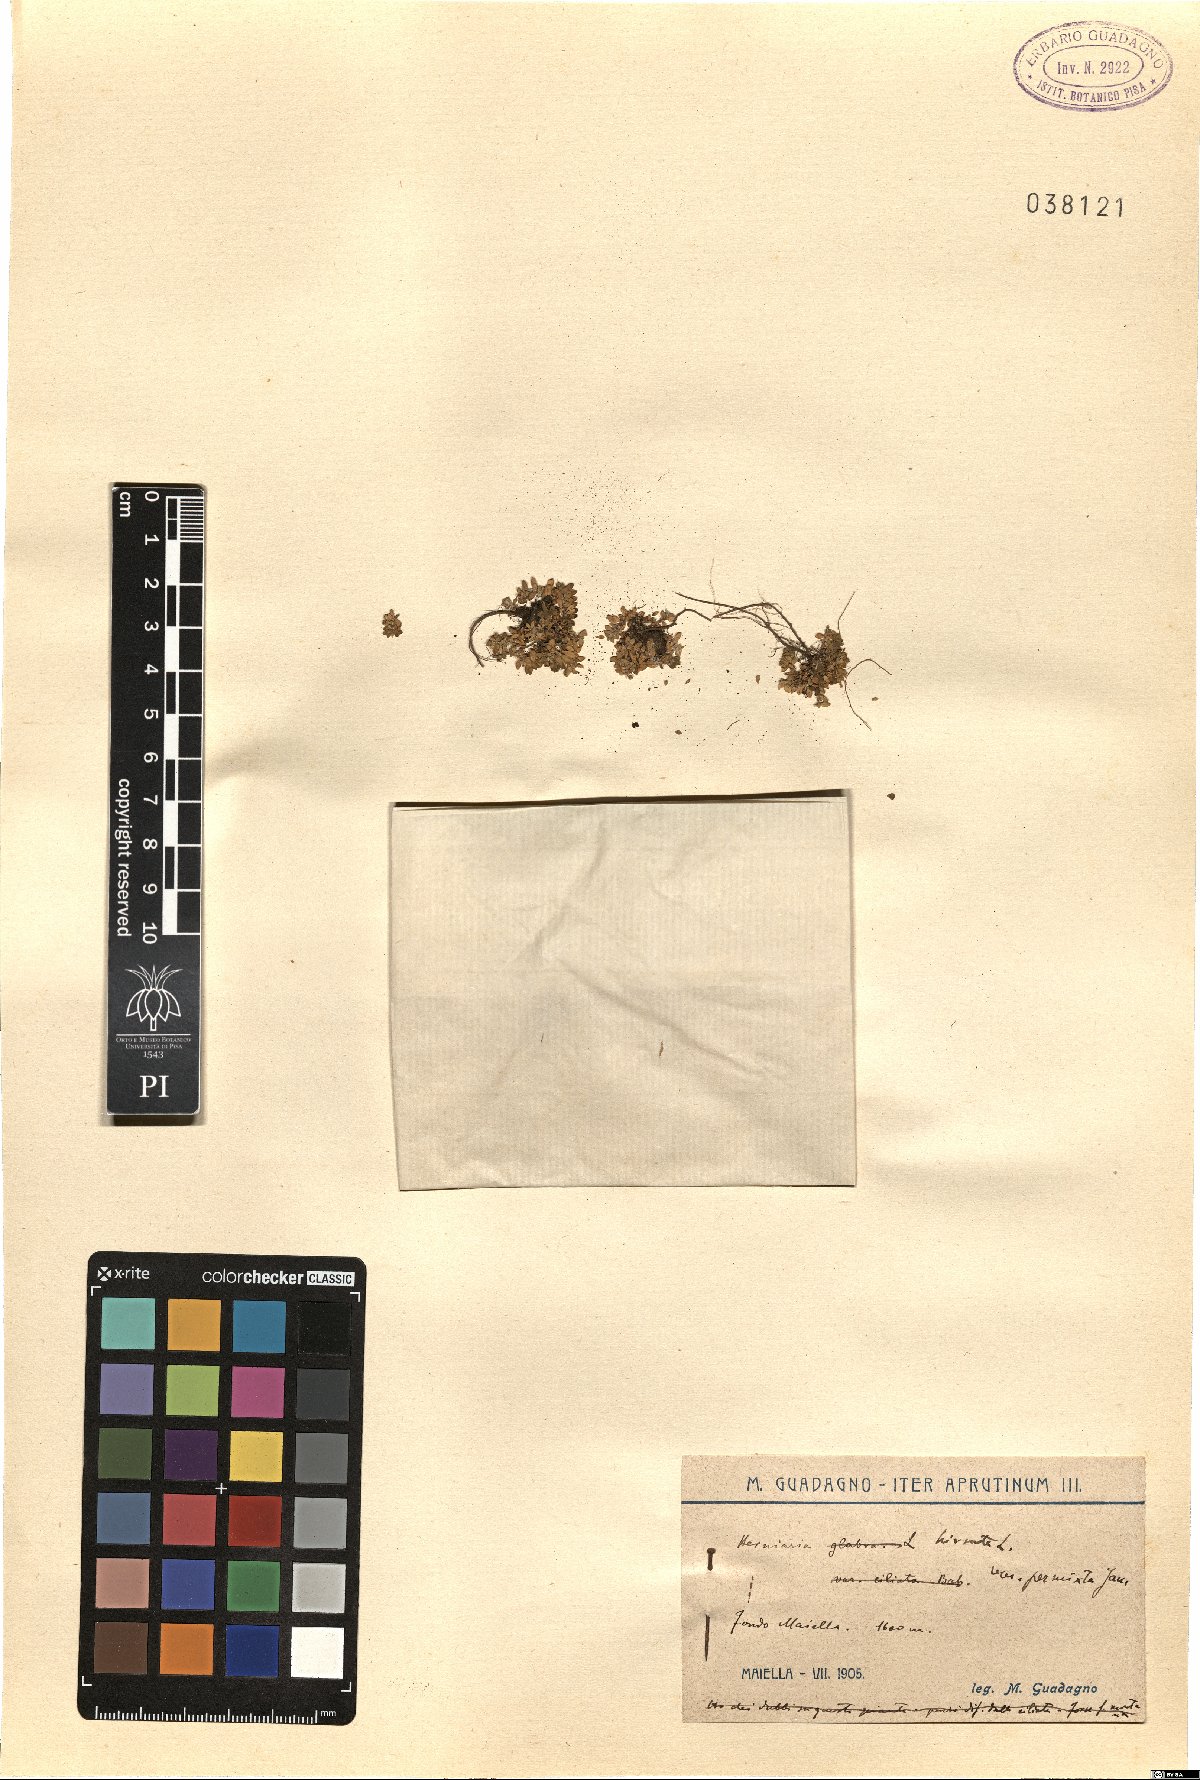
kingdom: Plantae
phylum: Tracheophyta
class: Magnoliopsida
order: Caryophyllales
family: Caryophyllaceae
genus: Herniaria
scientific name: Herniaria hirsuta
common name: Hairy rupturewort
